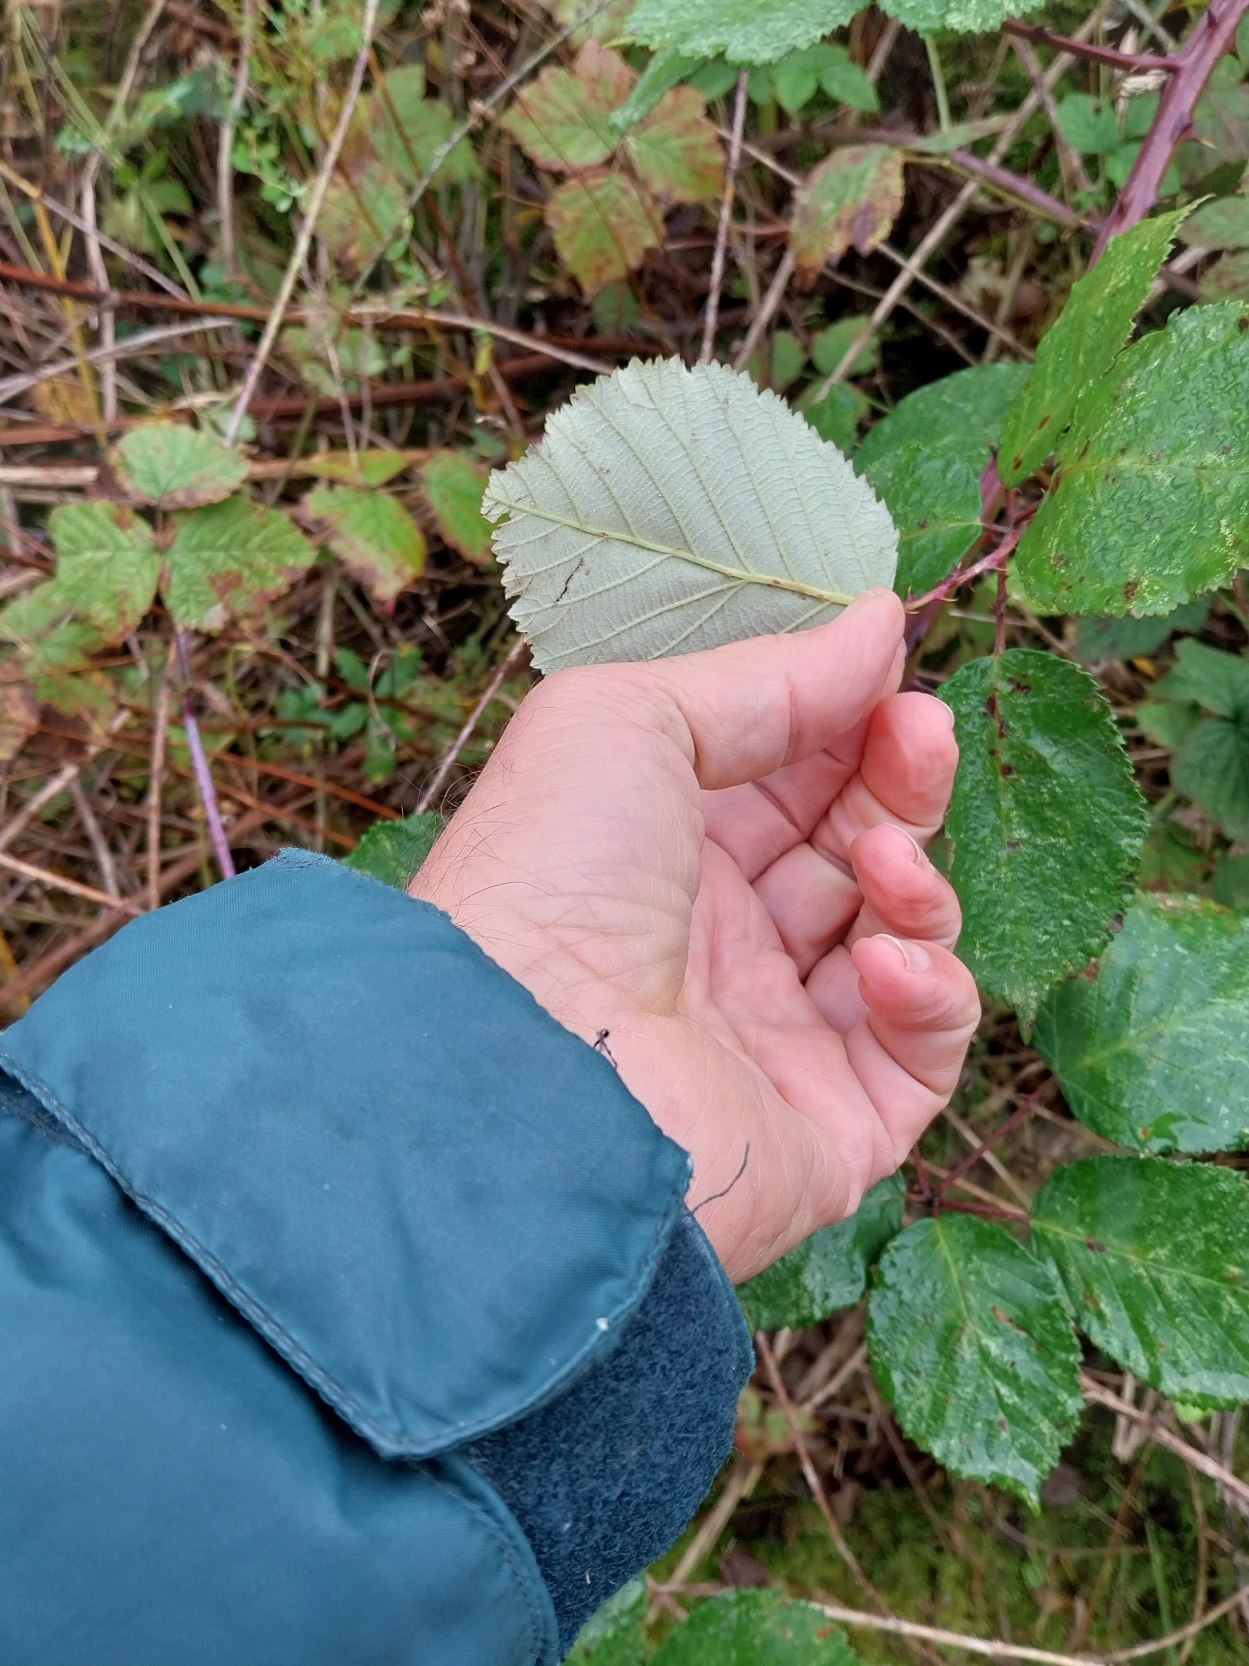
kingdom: Plantae
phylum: Tracheophyta
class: Magnoliopsida
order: Rosales
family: Rosaceae
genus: Rubus
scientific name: Rubus armeniacus
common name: Armensk brombær
